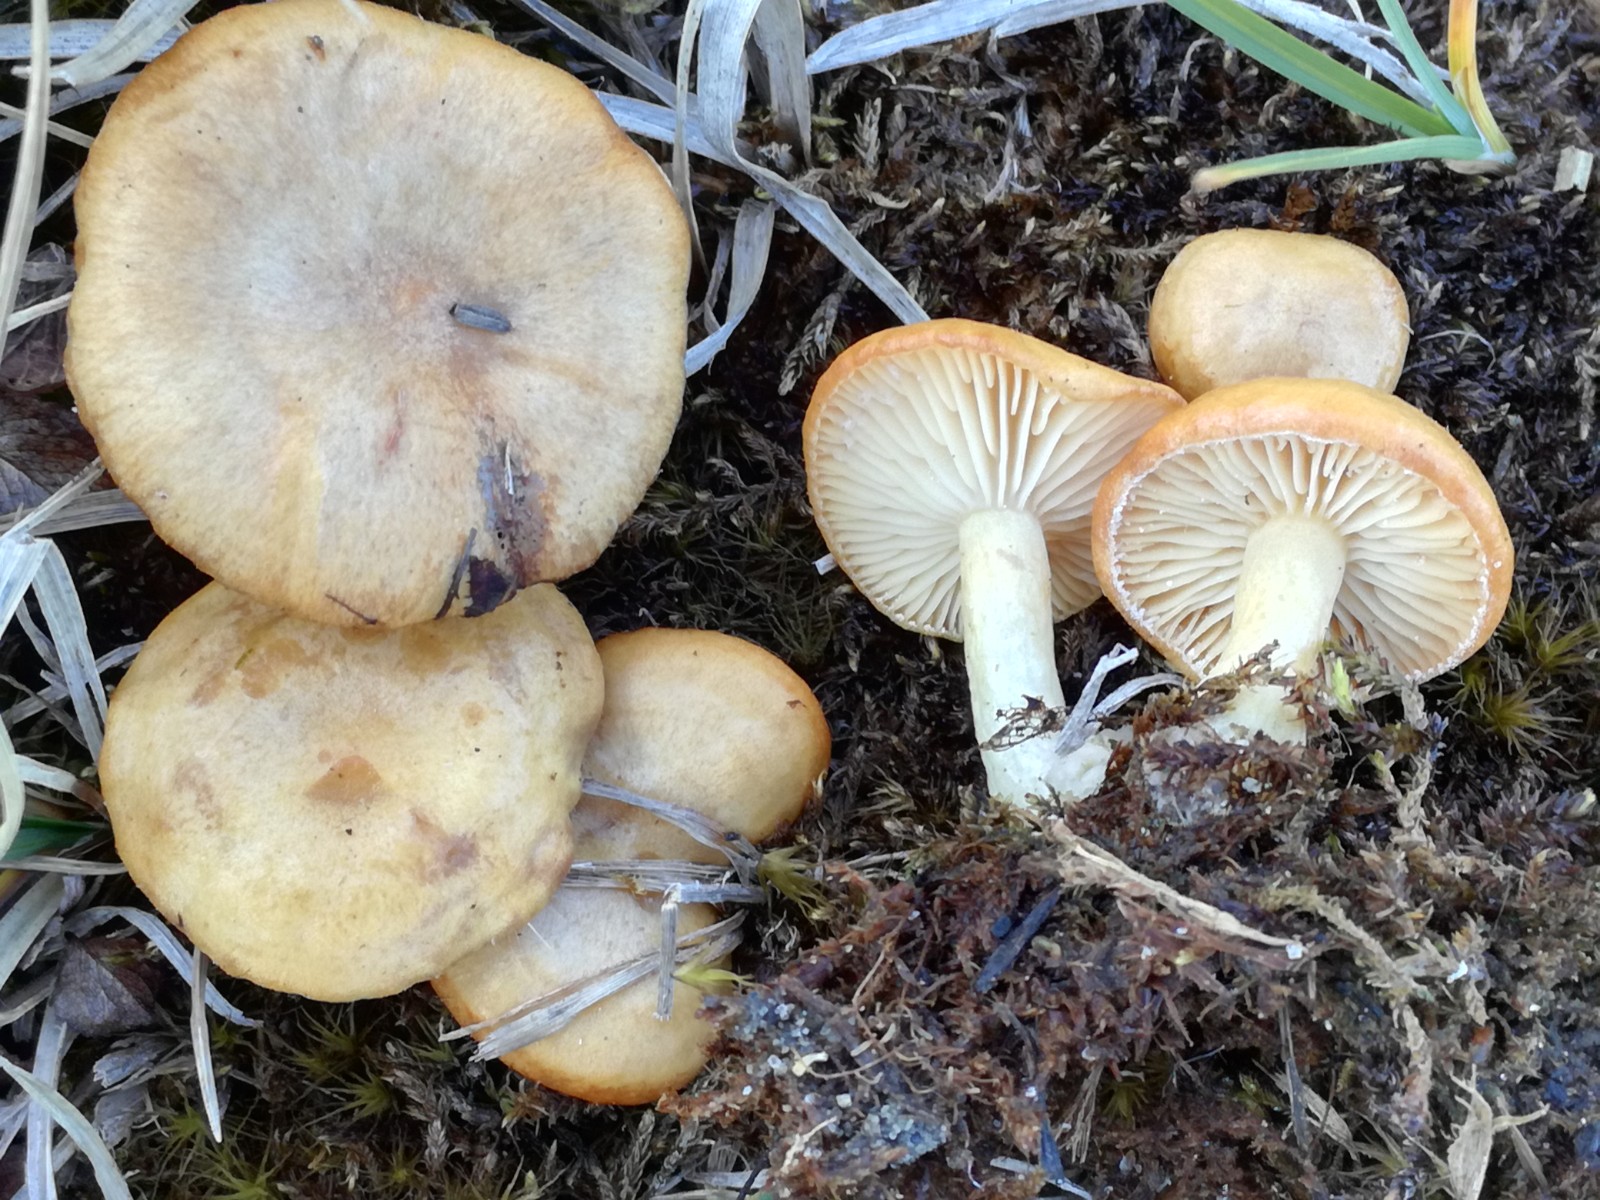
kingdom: Fungi
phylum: Basidiomycota
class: Agaricomycetes
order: Russulales
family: Russulaceae
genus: Lactarius
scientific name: Lactarius salicis-herbaceae
